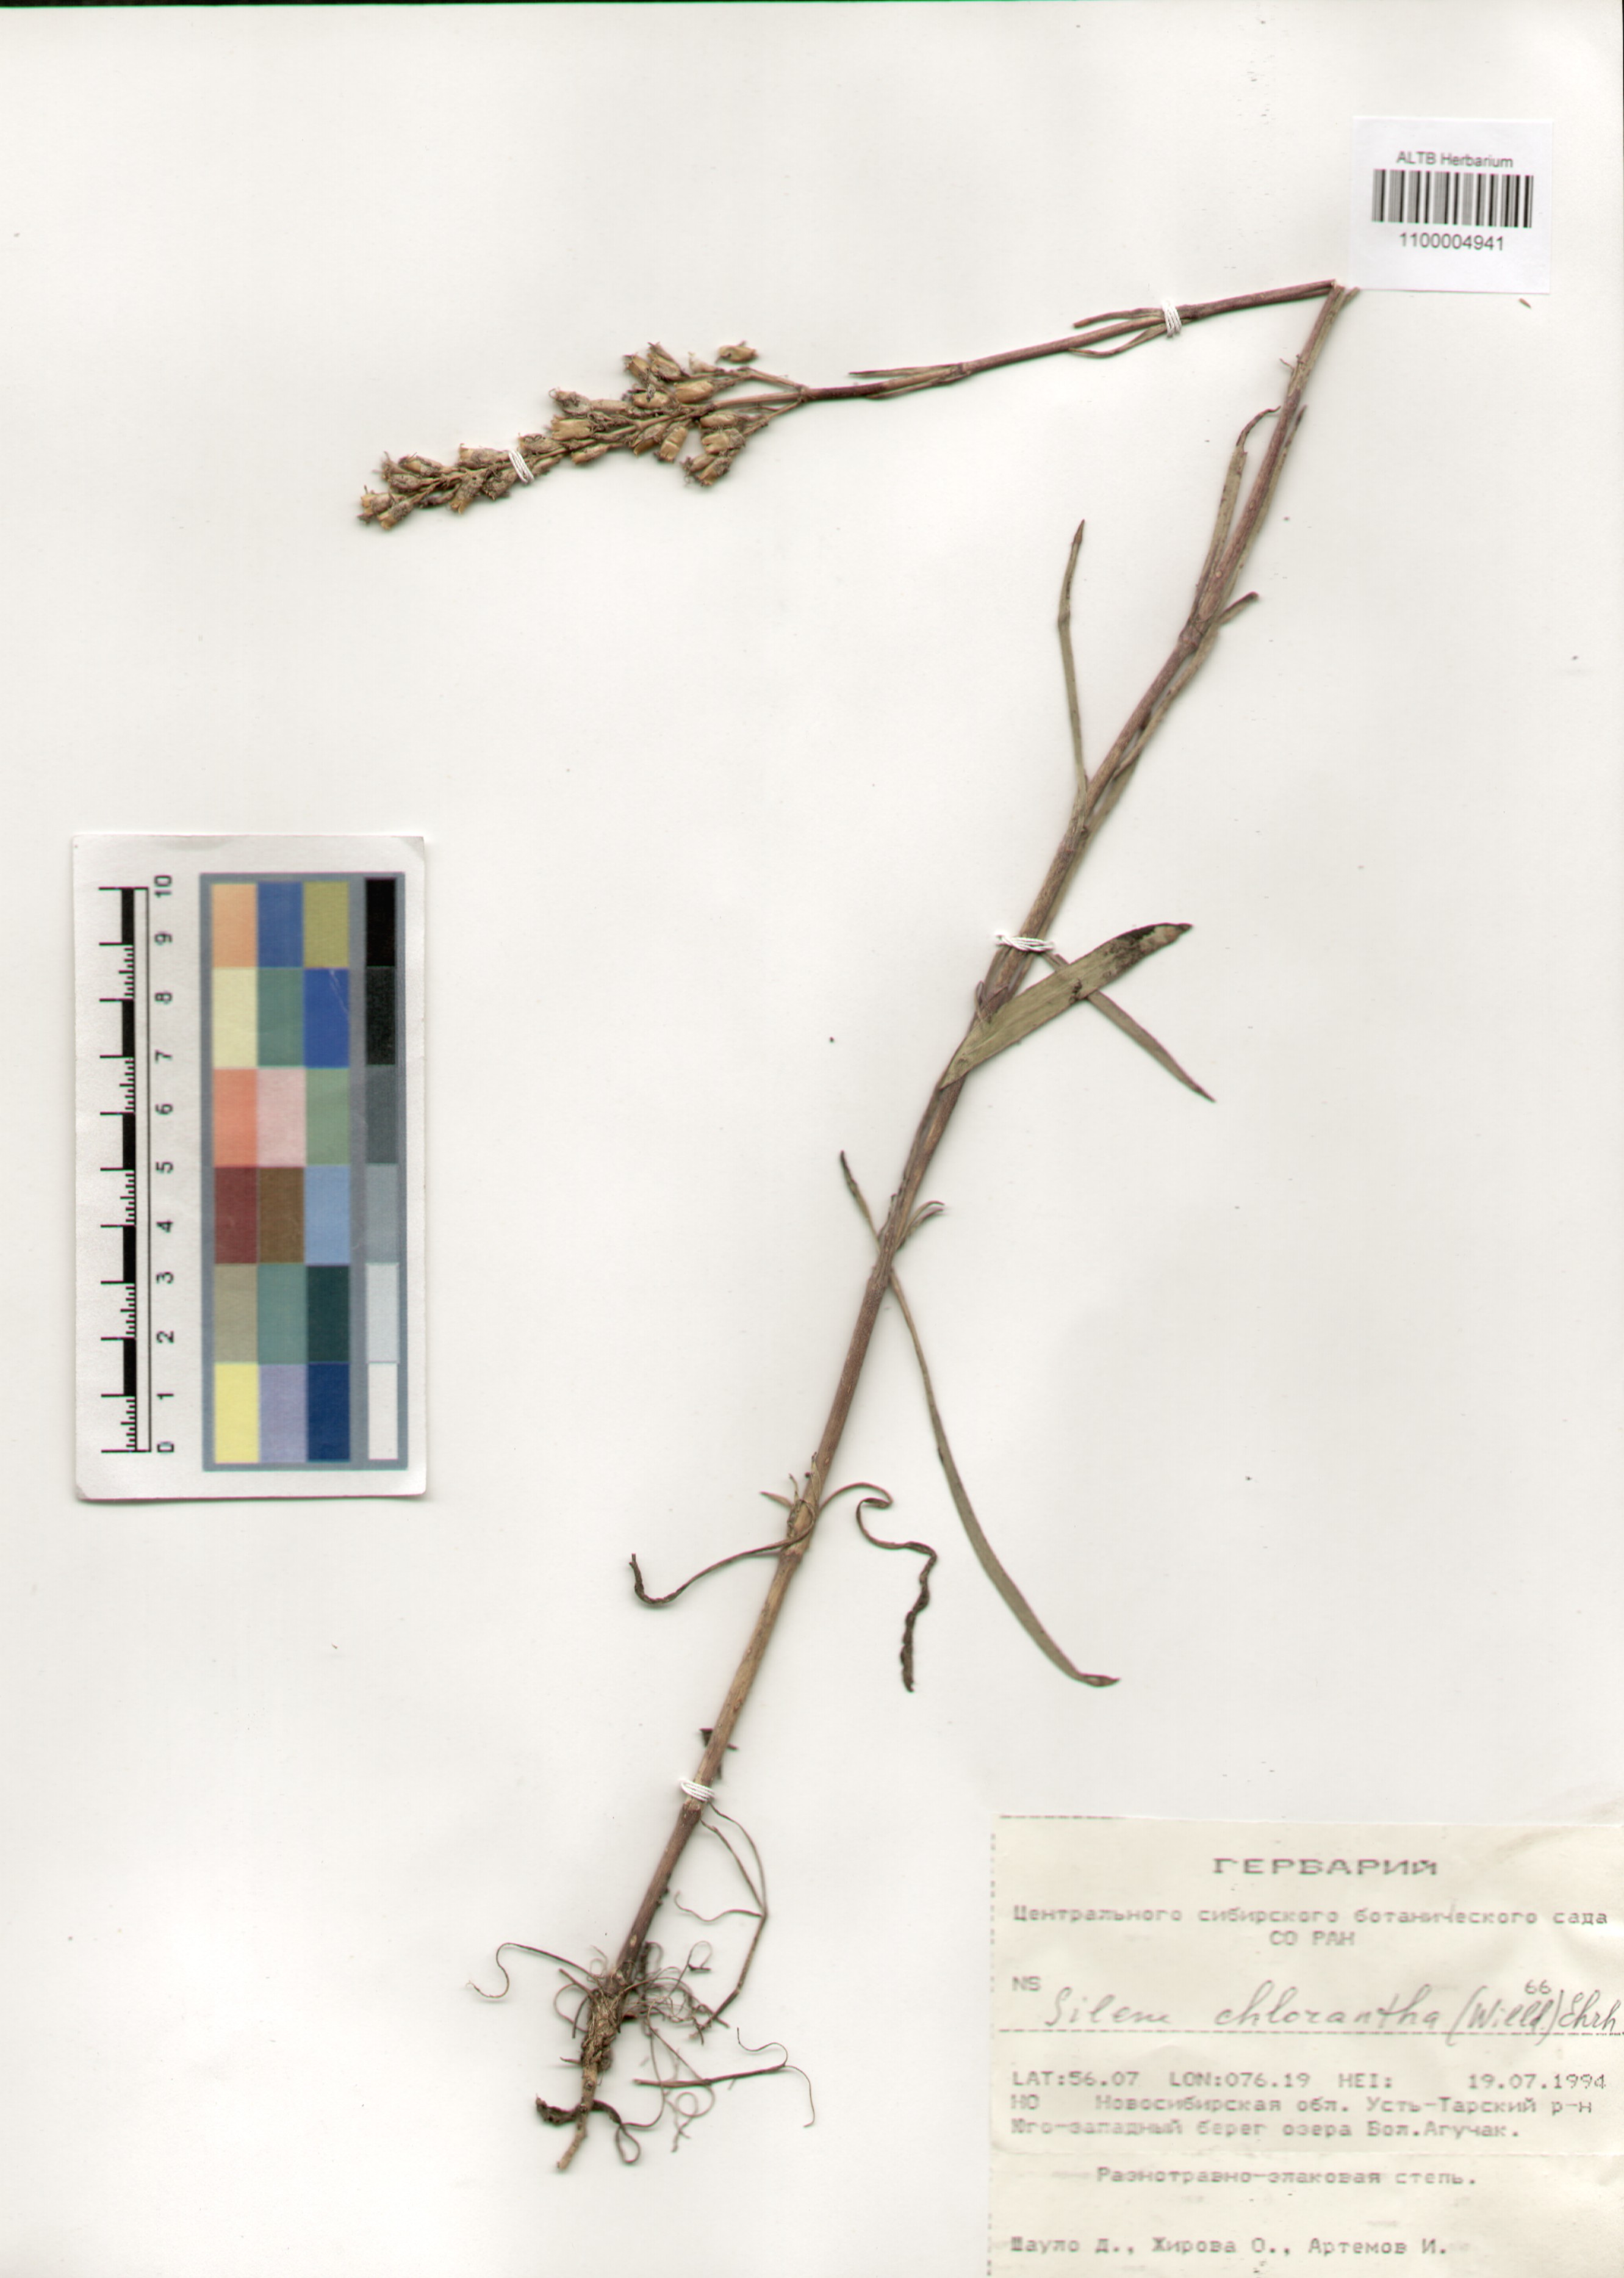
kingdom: Plantae
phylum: Tracheophyta
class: Magnoliopsida
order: Caryophyllales
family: Caryophyllaceae
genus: Silene
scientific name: Silene chlorantha
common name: Yellowgreen catchfly
